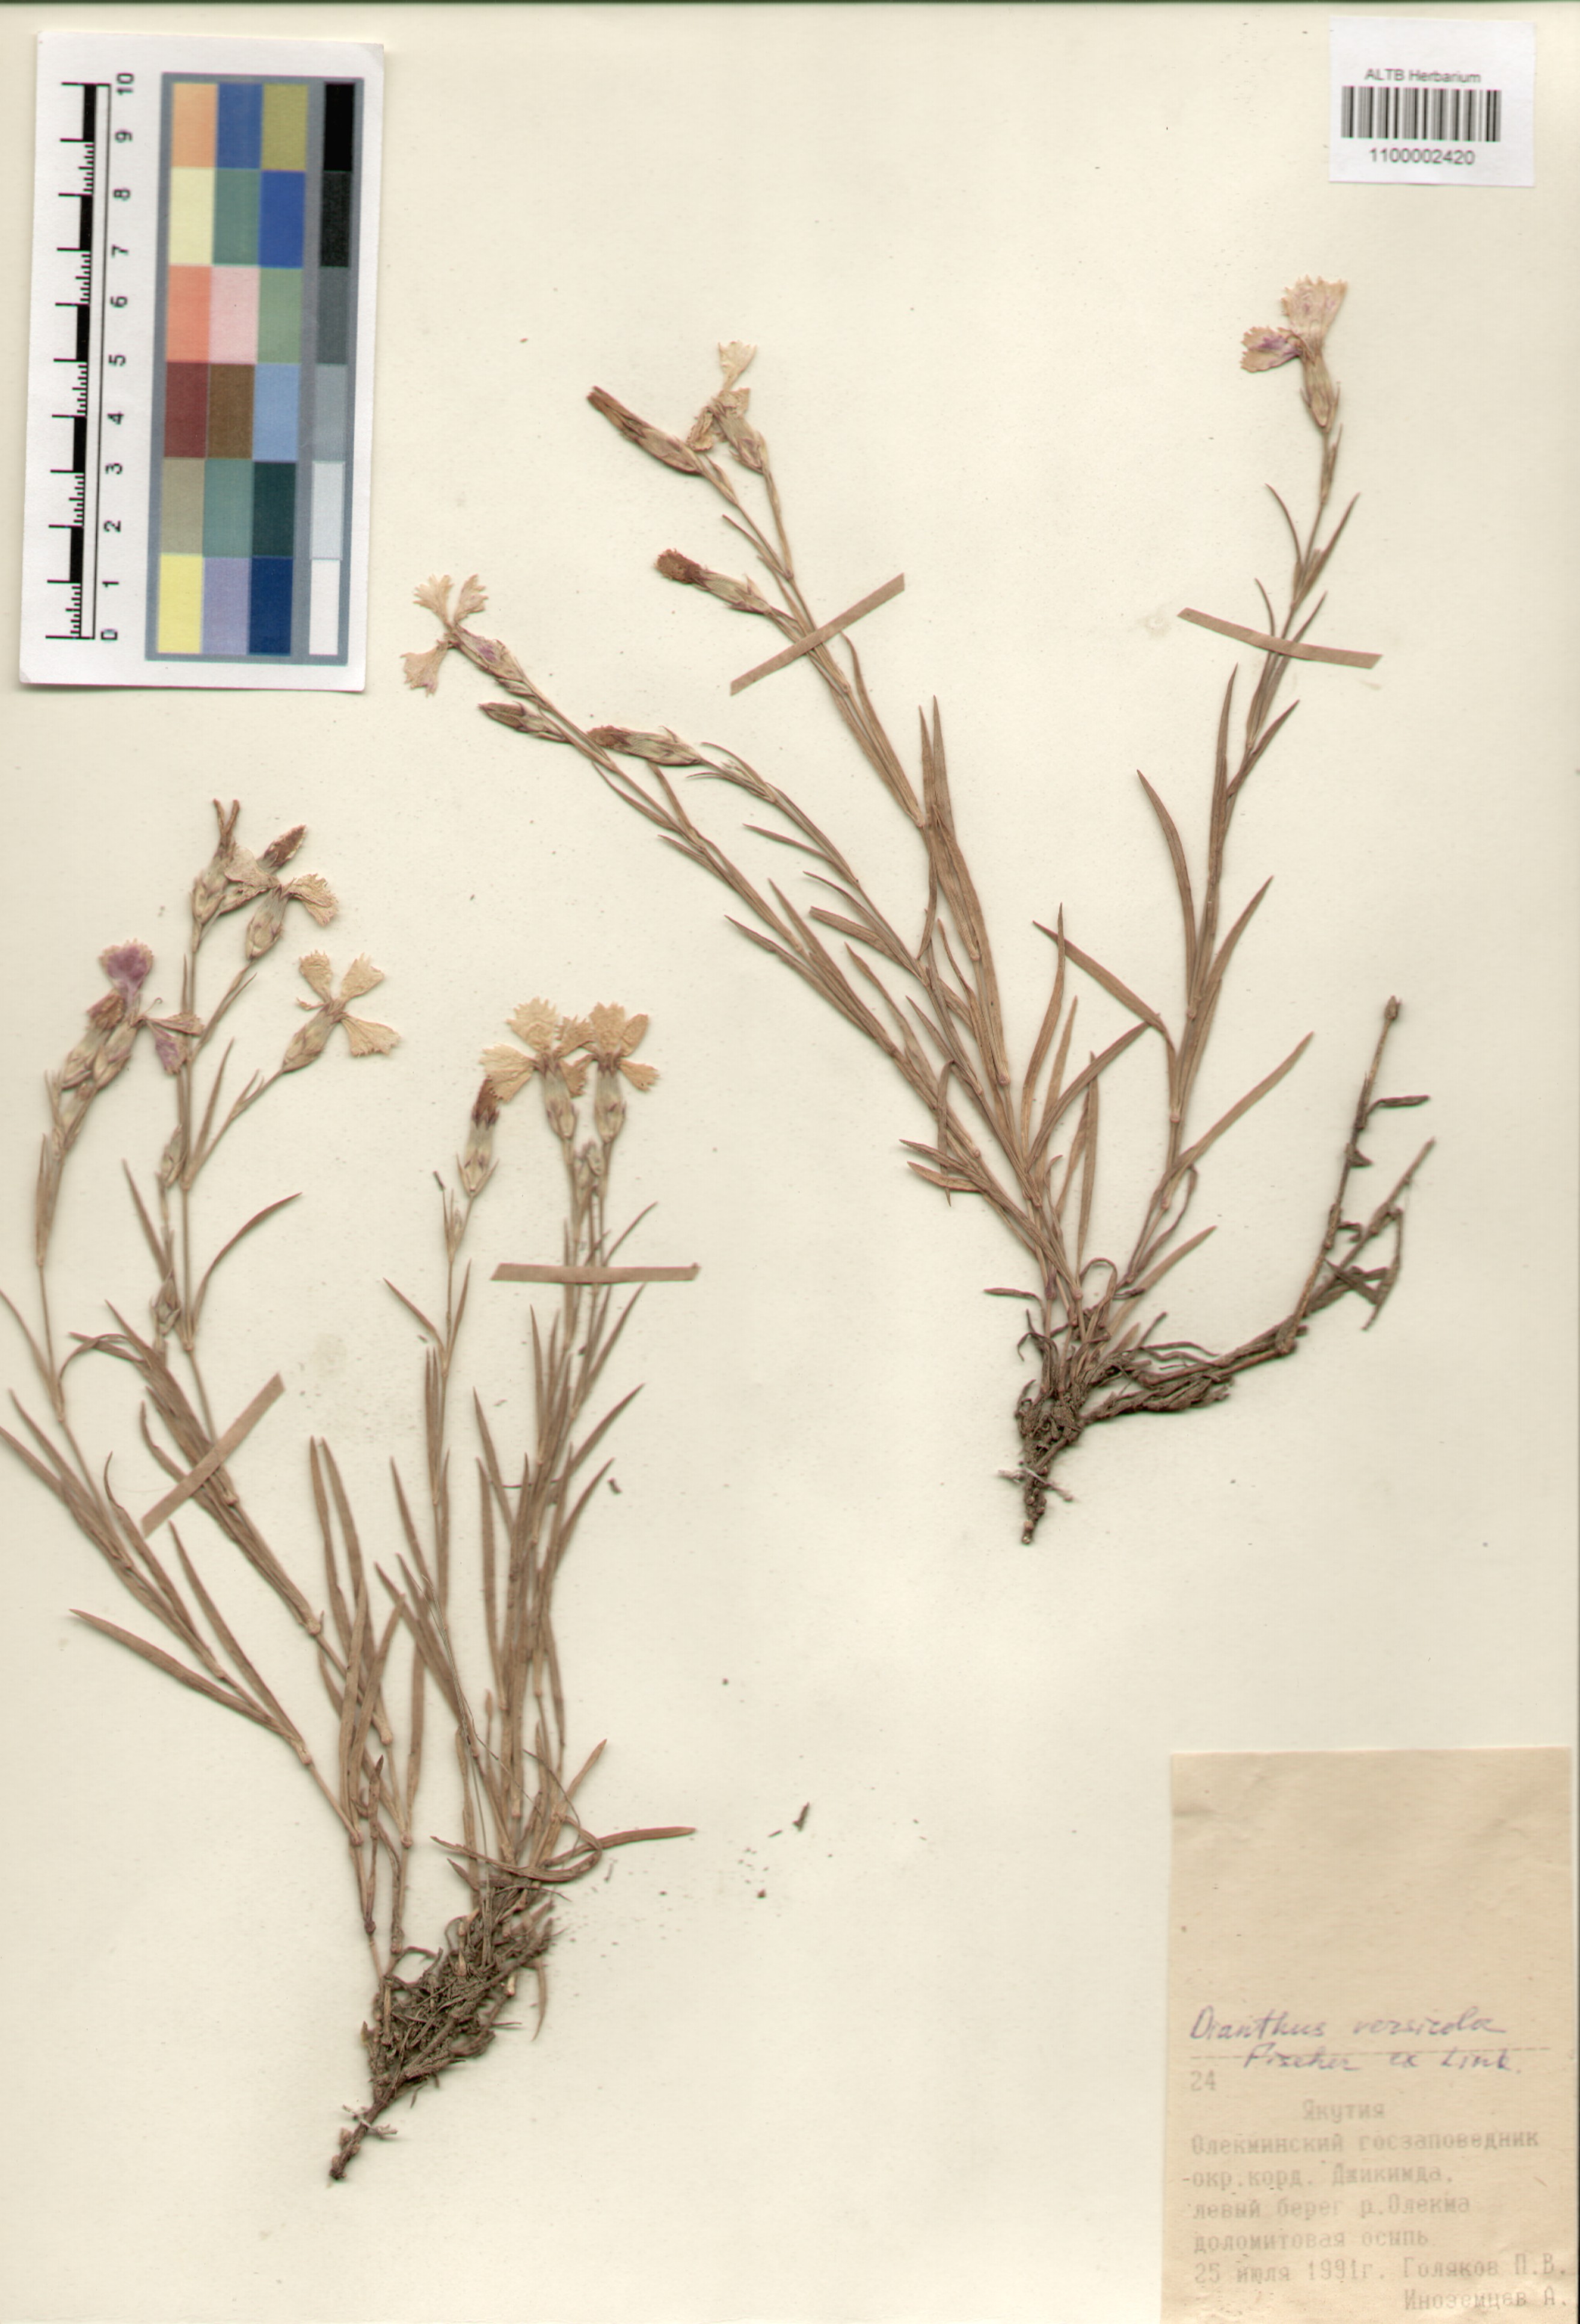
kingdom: Plantae
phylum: Tracheophyta
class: Magnoliopsida
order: Caryophyllales
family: Caryophyllaceae
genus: Dianthus
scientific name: Dianthus chinensis
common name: Rainbow pink
